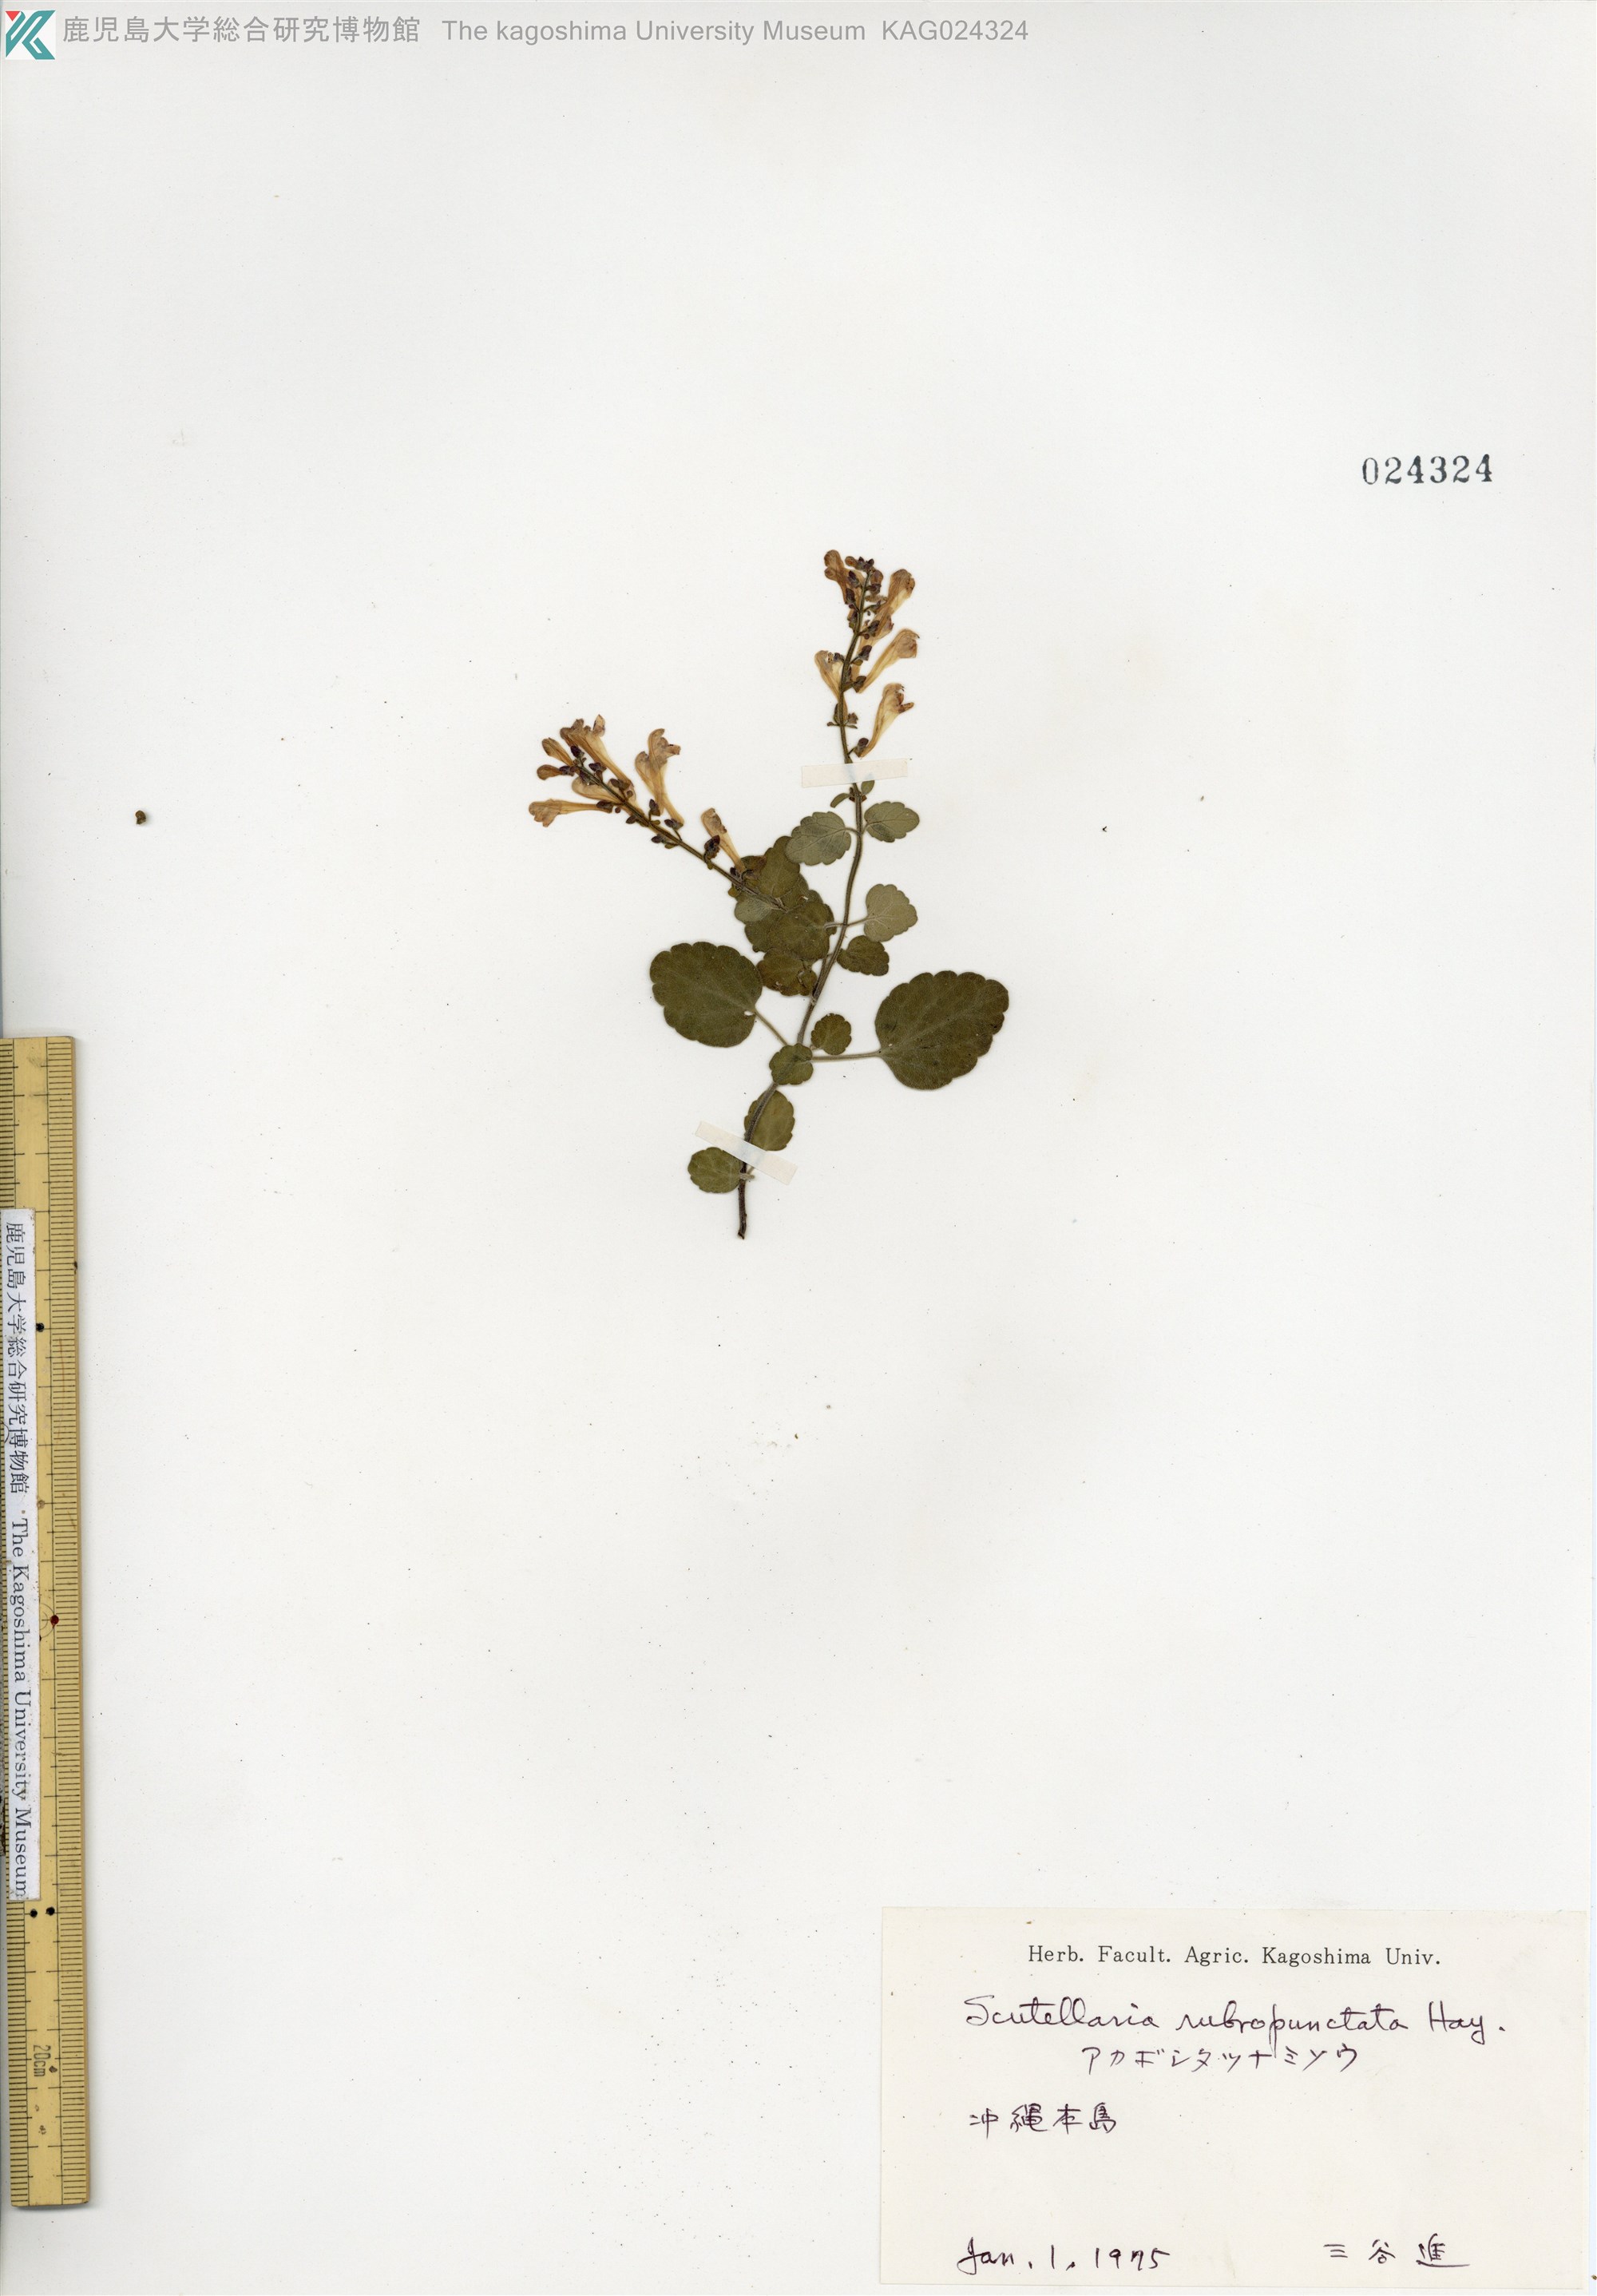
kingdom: Plantae
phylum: Tracheophyta
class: Magnoliopsida
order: Lamiales
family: Lamiaceae
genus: Scutellaria
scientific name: Scutellaria rubropunctata
